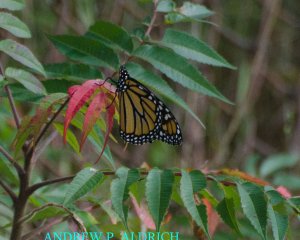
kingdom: Animalia
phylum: Arthropoda
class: Insecta
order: Lepidoptera
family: Nymphalidae
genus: Danaus
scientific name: Danaus plexippus
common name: Monarch
